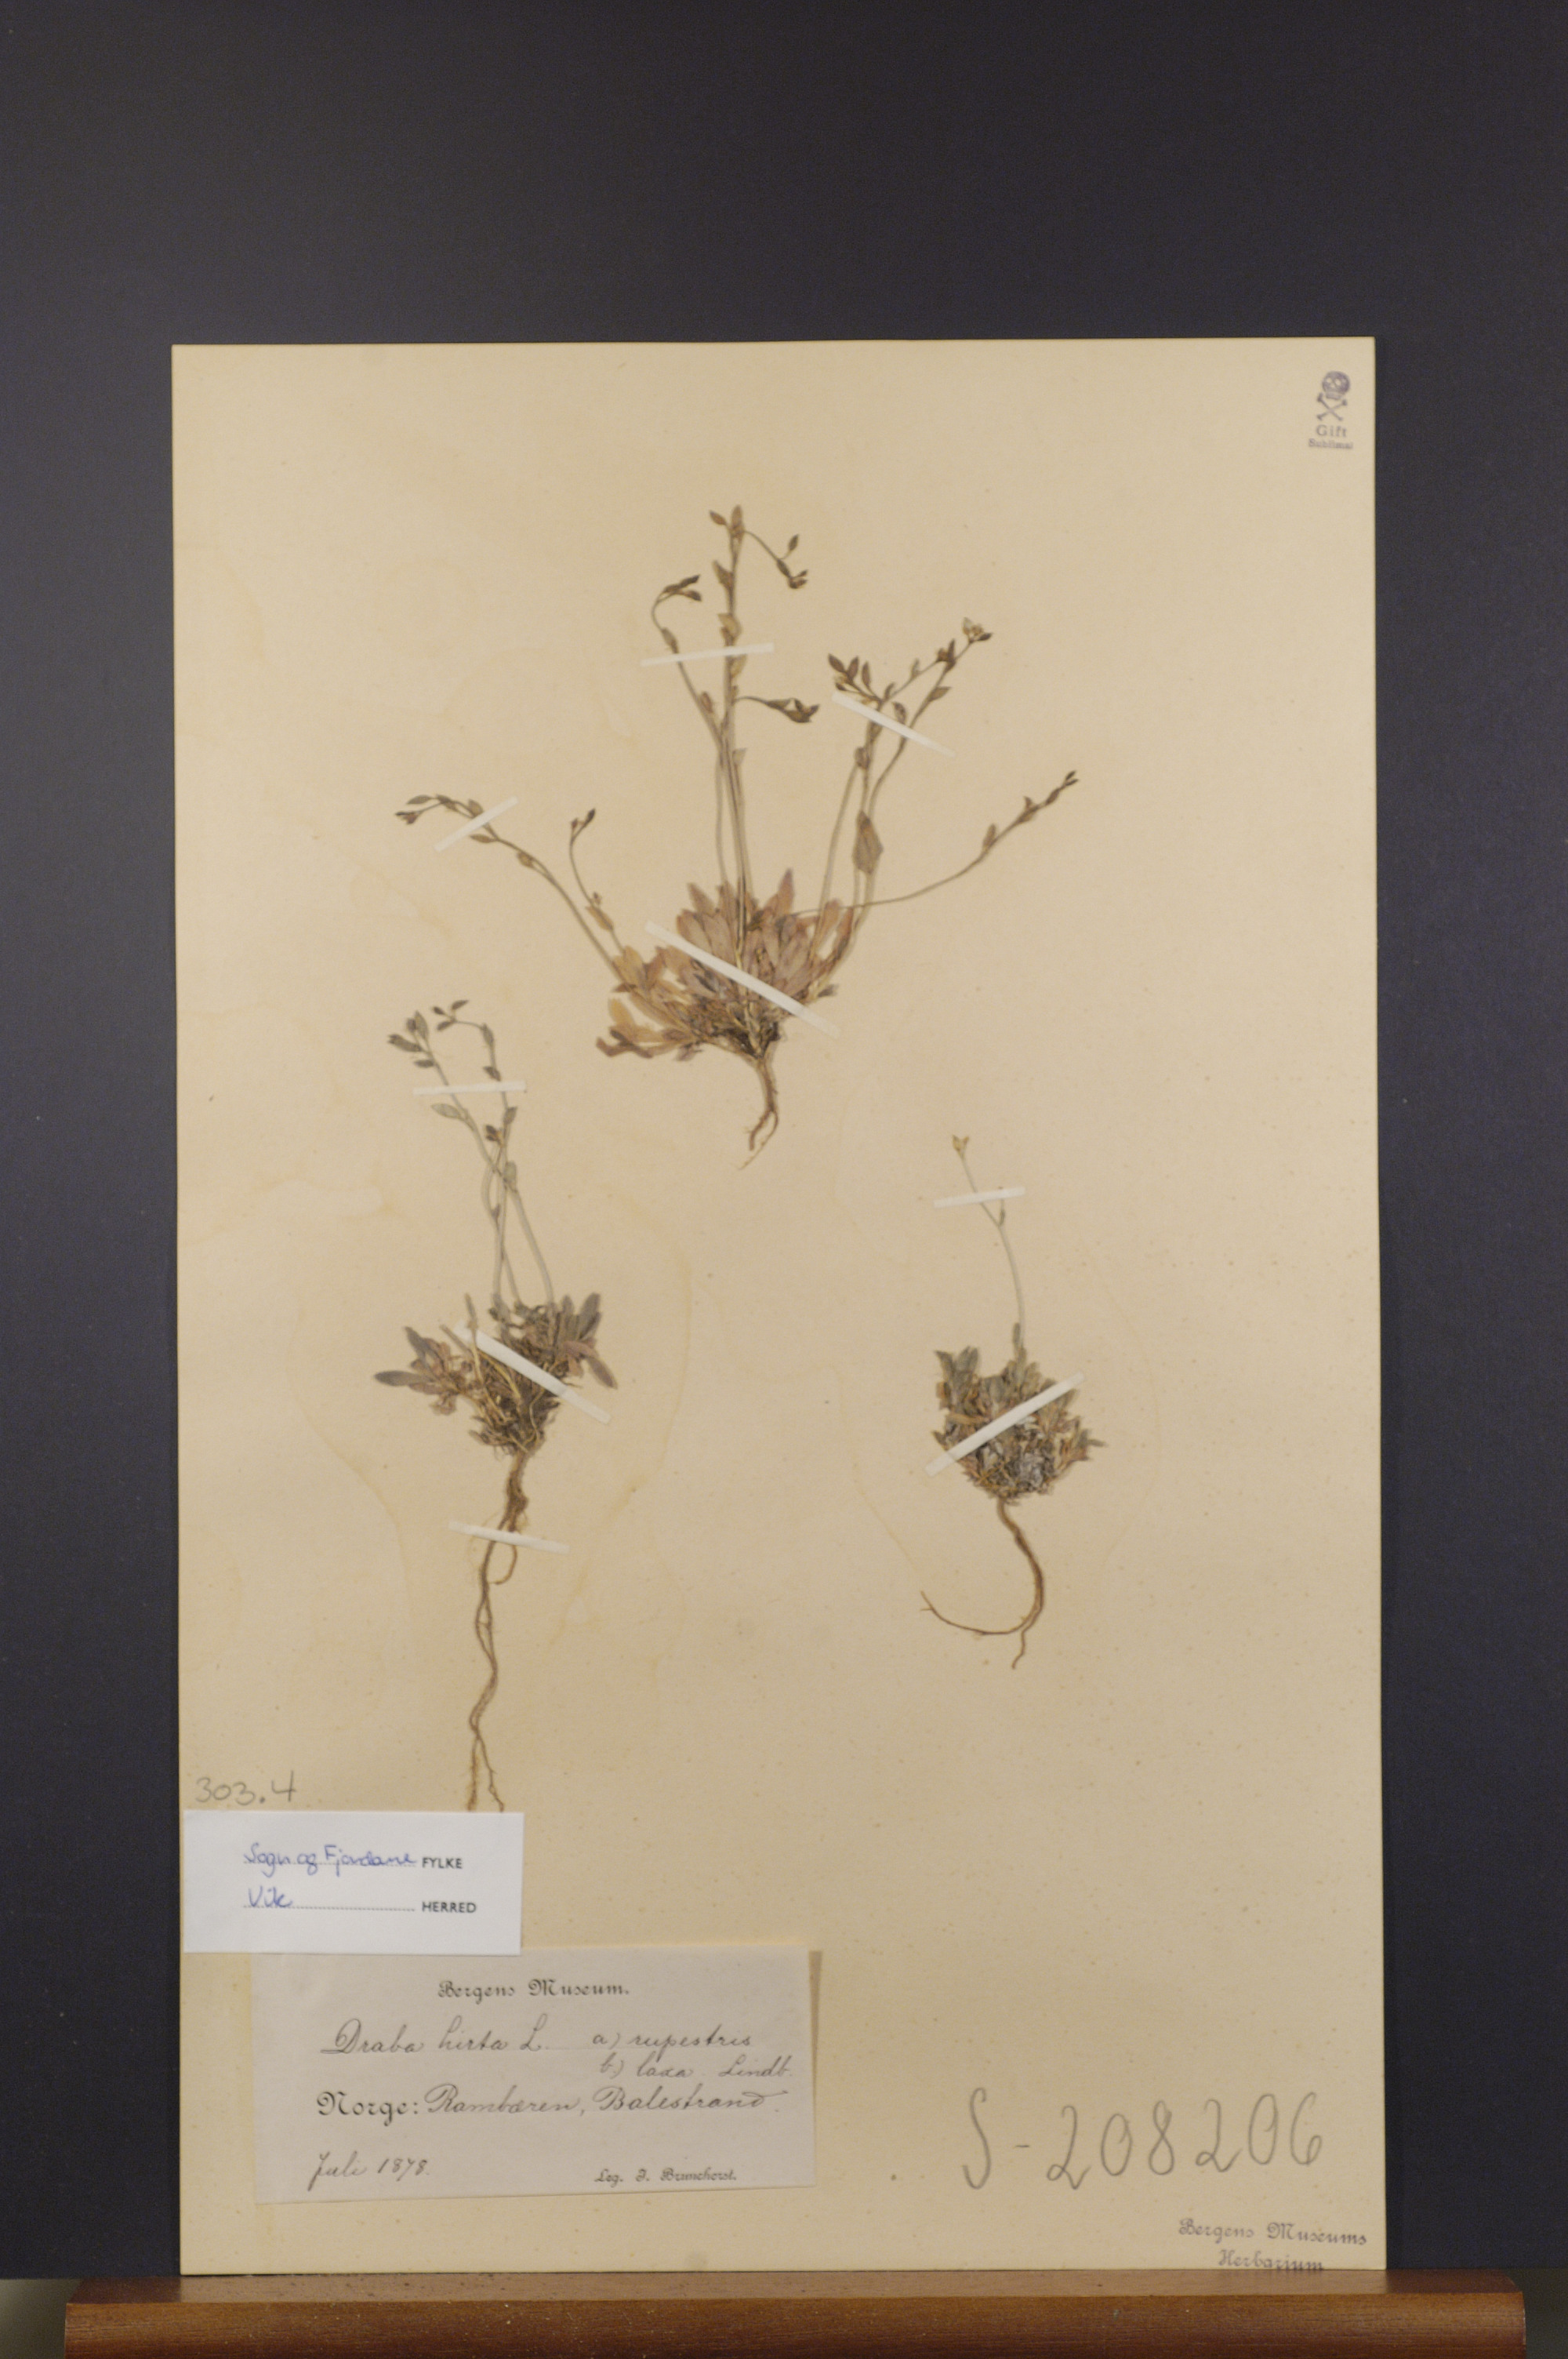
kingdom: Plantae
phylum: Tracheophyta
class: Magnoliopsida
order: Brassicales
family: Brassicaceae
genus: Draba
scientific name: Draba glabella
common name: Glaucous draba
